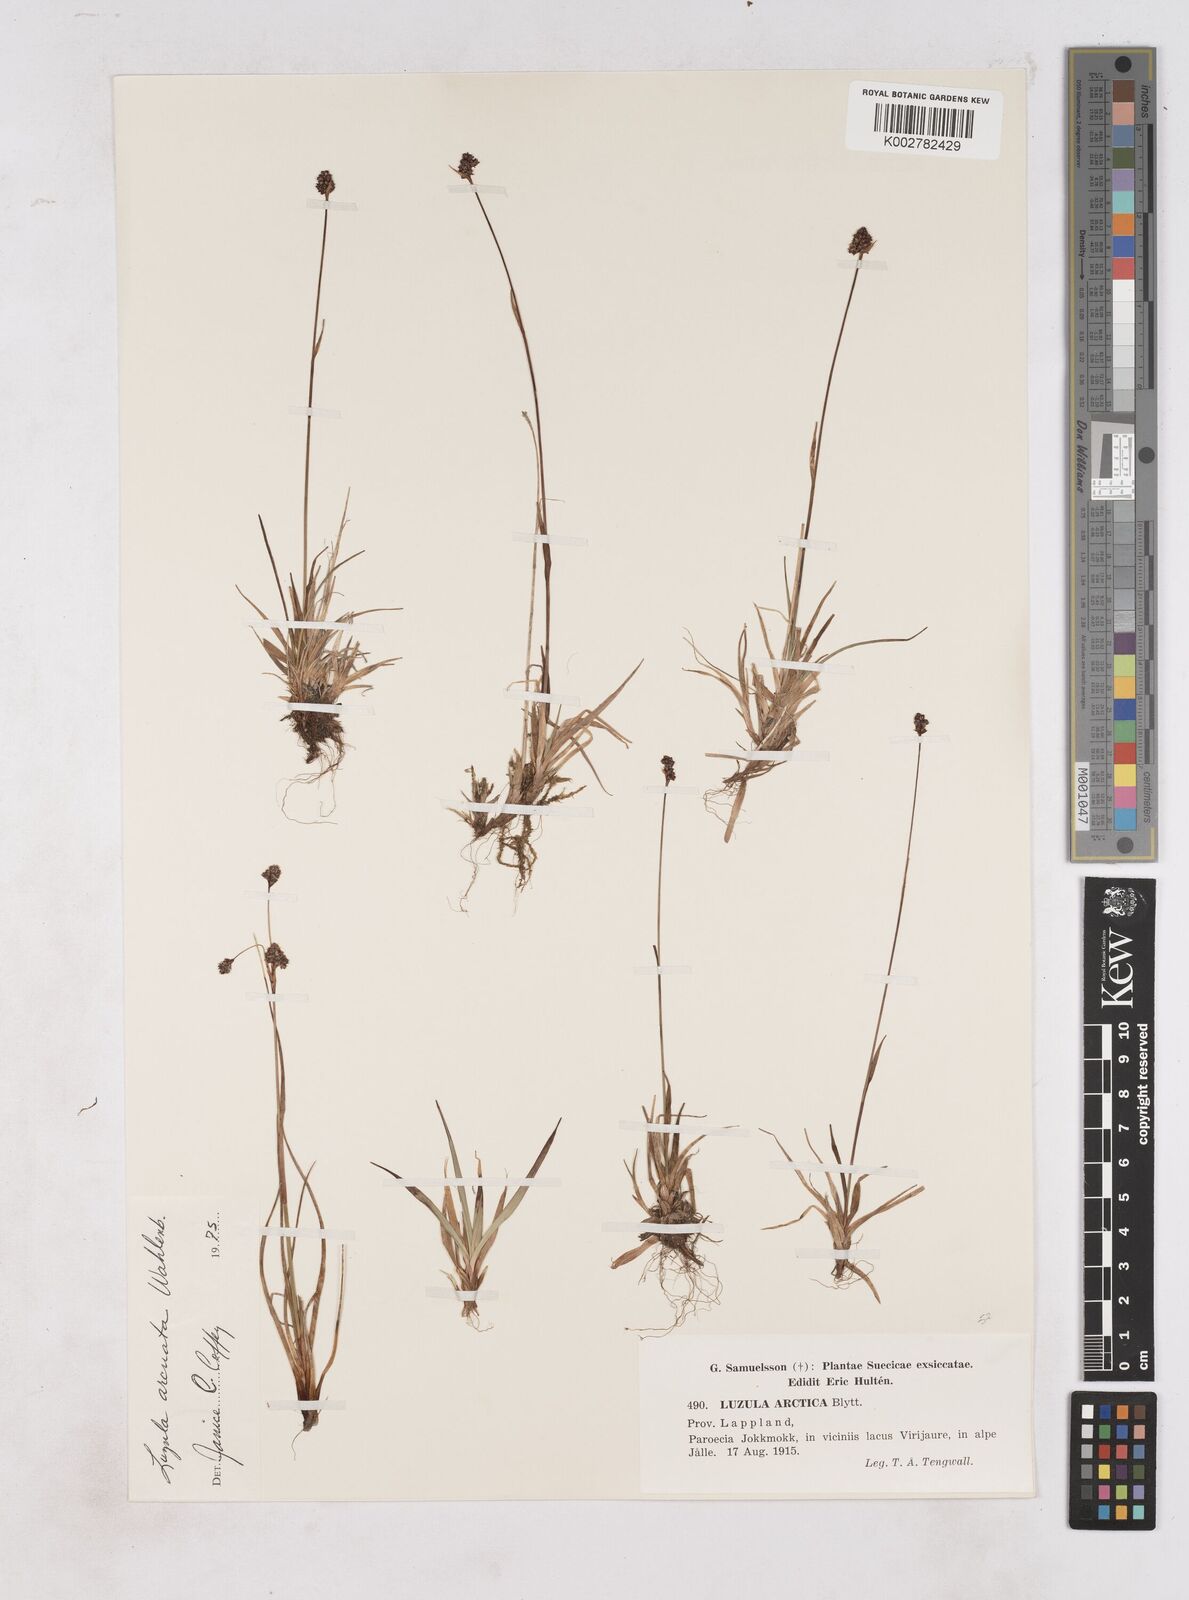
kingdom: Plantae
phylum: Tracheophyta
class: Liliopsida
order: Poales
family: Juncaceae
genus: Luzula
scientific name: Luzula nivalis
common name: Arctic woodrush
